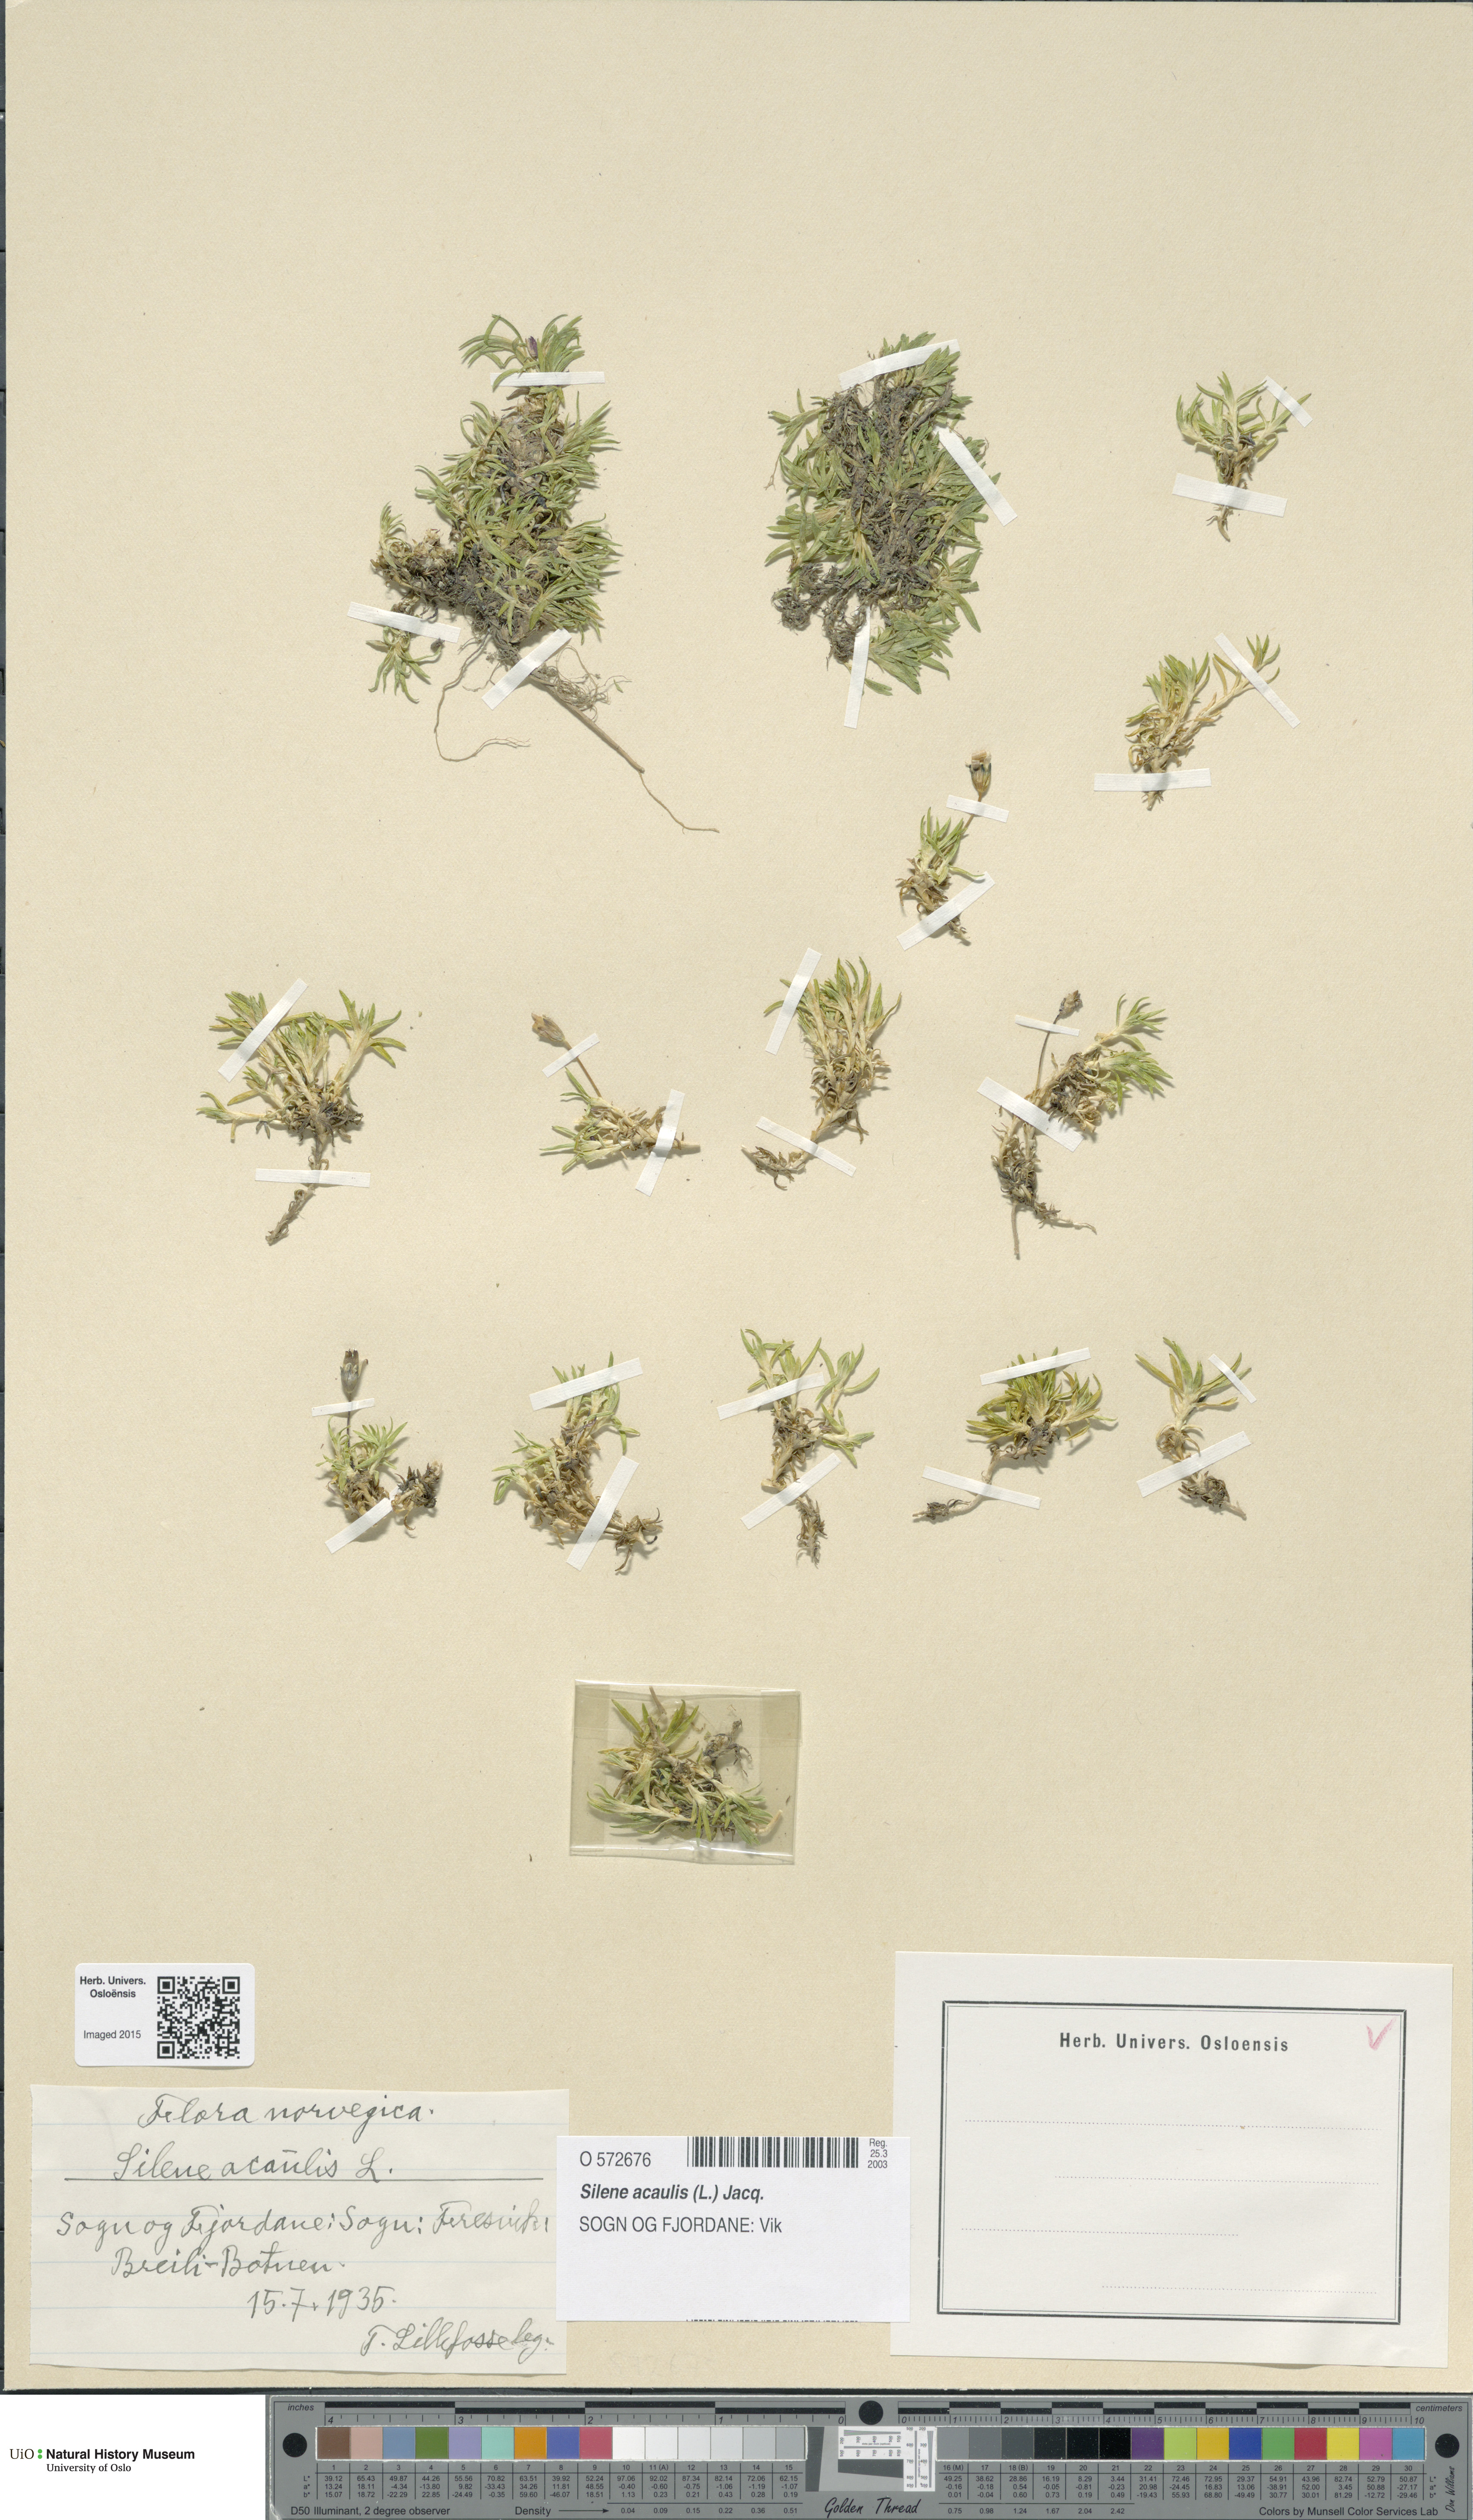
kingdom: Plantae
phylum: Tracheophyta
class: Magnoliopsida
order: Caryophyllales
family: Caryophyllaceae
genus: Silene
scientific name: Silene acaulis
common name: Moss campion
